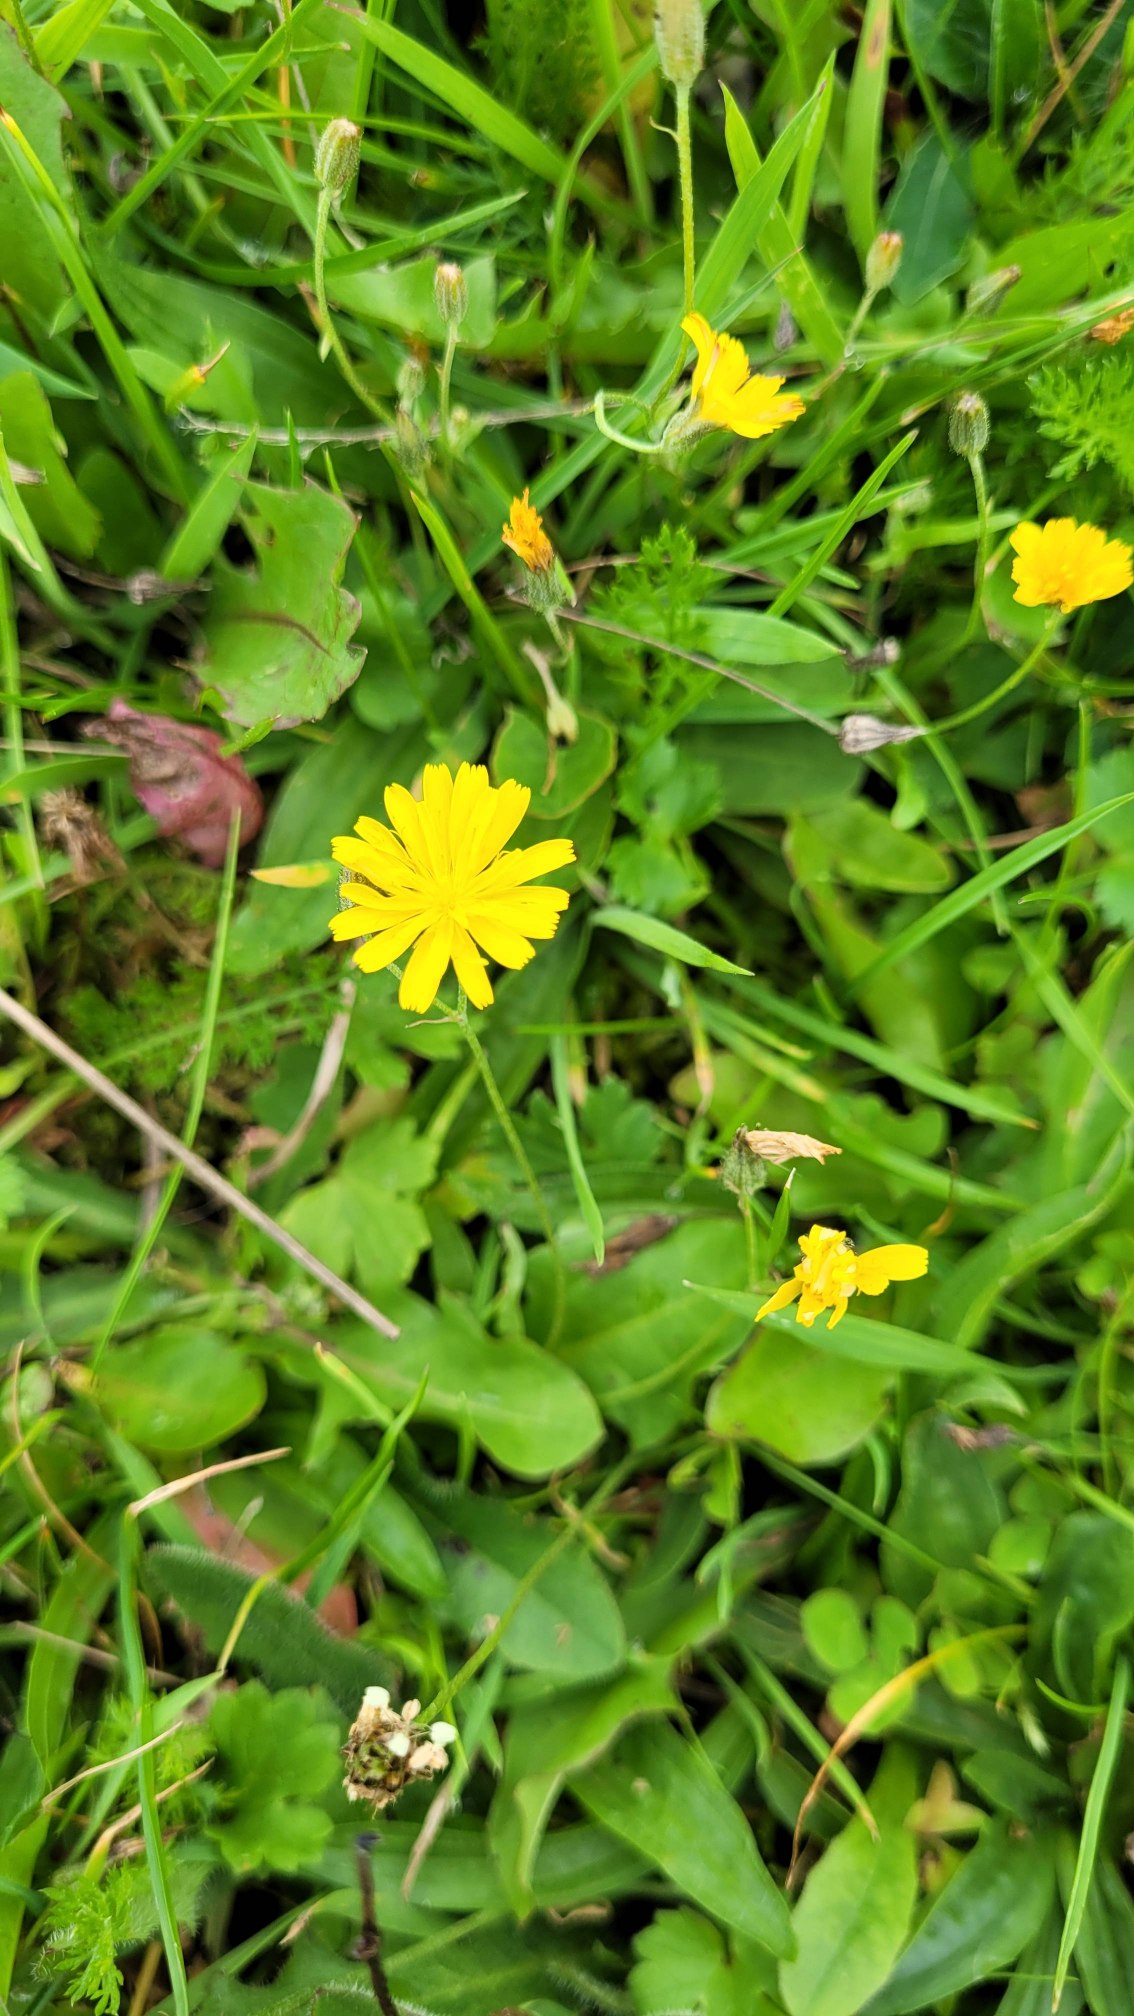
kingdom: Plantae
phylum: Tracheophyta
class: Magnoliopsida
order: Asterales
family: Asteraceae
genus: Crepis
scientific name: Crepis capillaris
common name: Grøn høgeskæg
